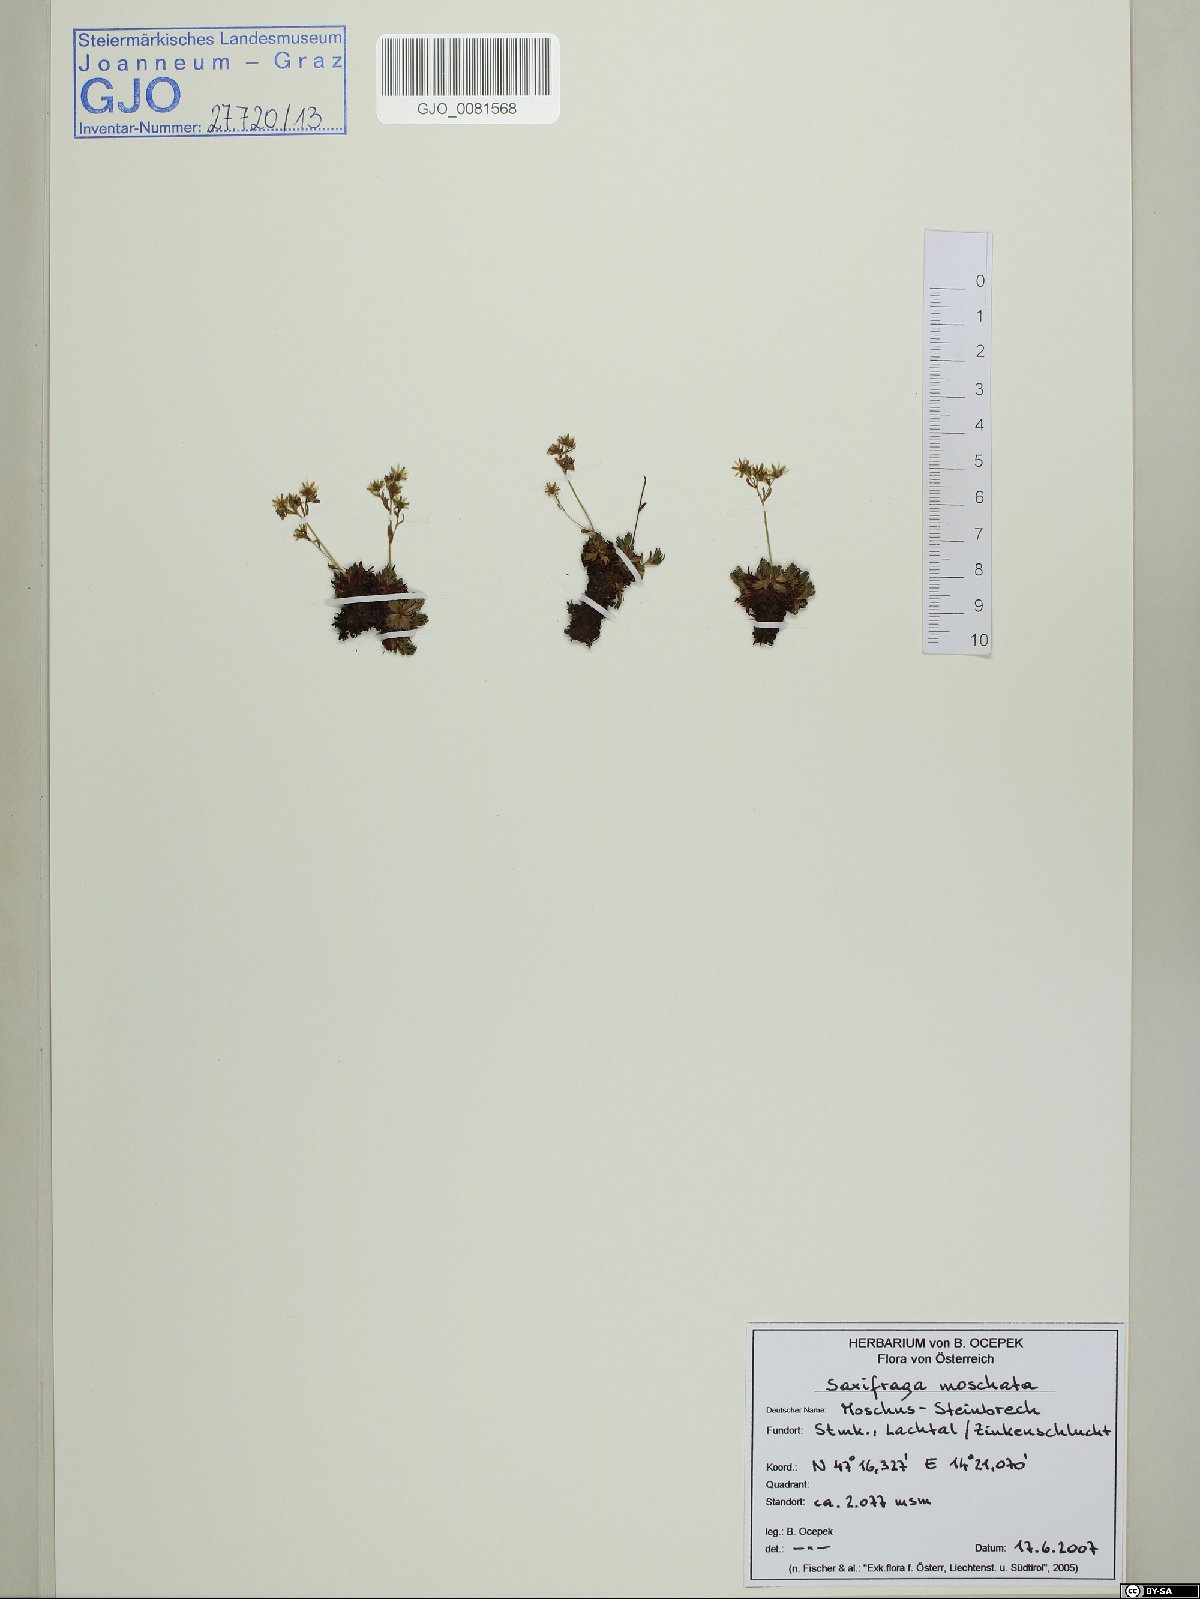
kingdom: Plantae
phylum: Tracheophyta
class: Magnoliopsida
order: Saxifragales
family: Saxifragaceae
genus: Saxifraga
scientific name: Saxifraga moschata
